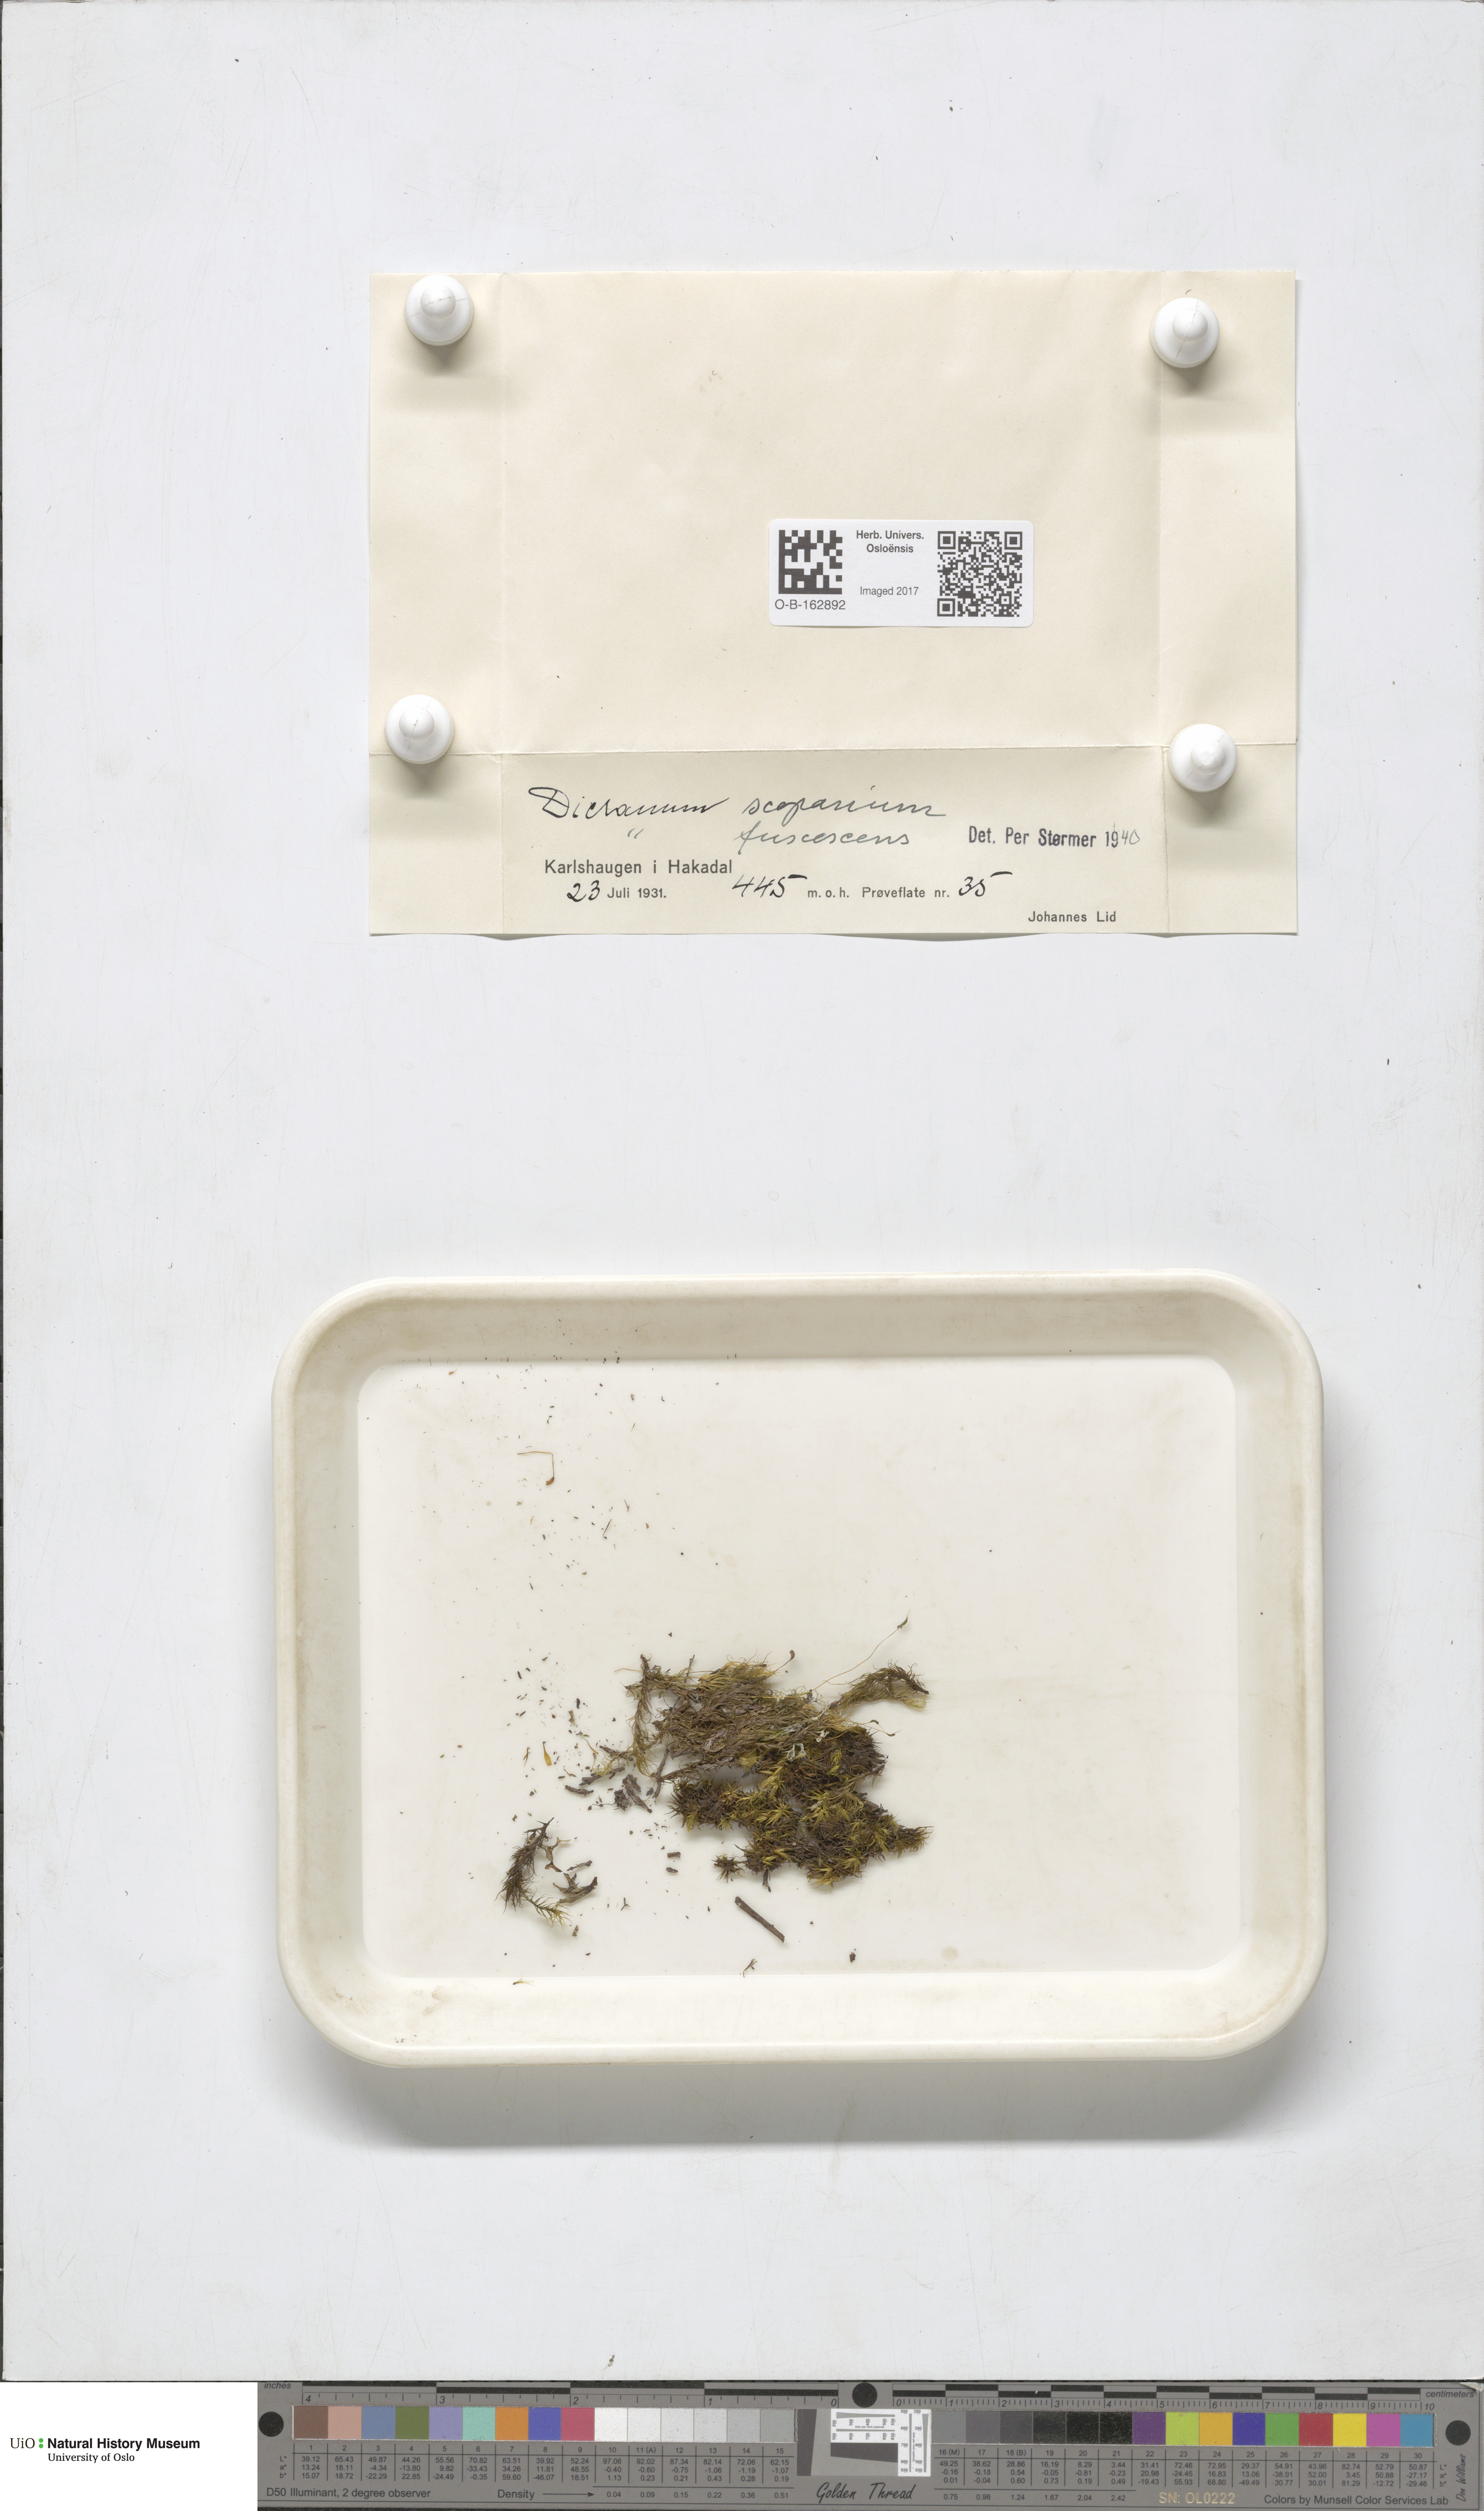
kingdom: Plantae
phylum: Bryophyta
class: Bryopsida
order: Dicranales
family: Dicranaceae
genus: Dicranum
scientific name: Dicranum scoparium
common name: Broom fork-moss
